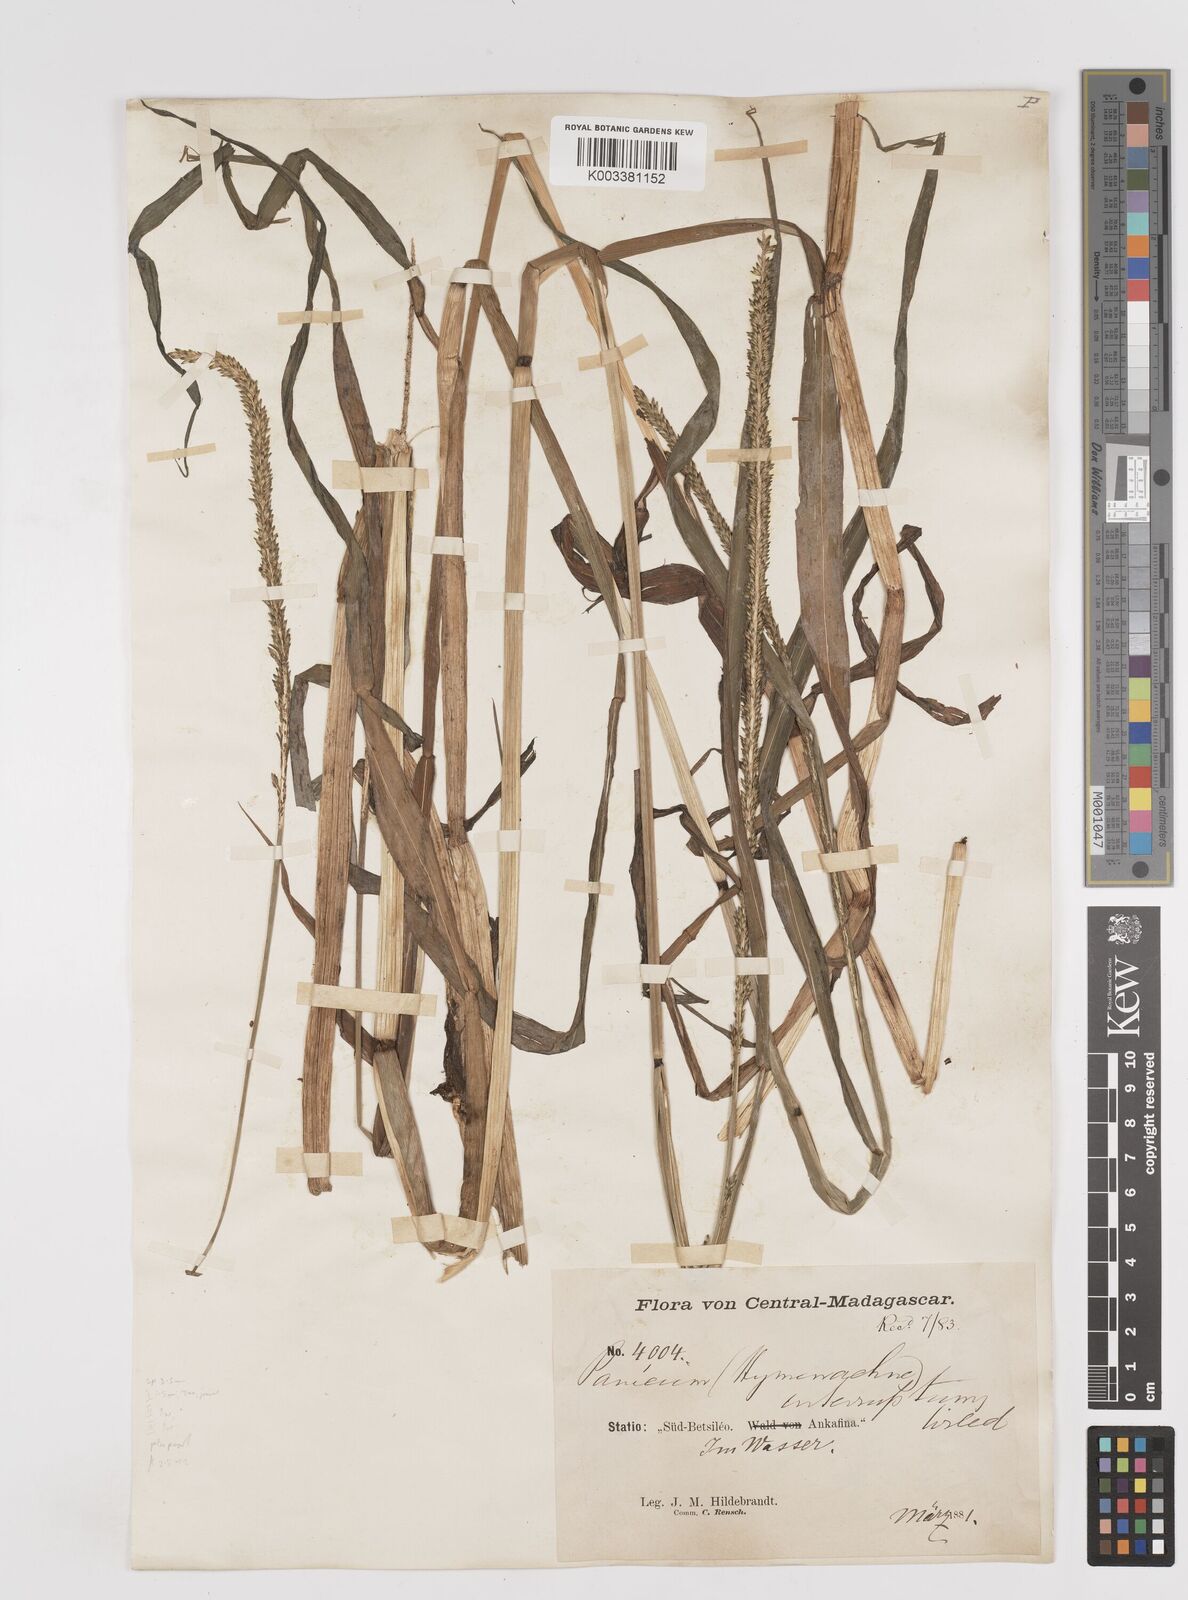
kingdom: Plantae
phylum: Tracheophyta
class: Liliopsida
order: Poales
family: Poaceae
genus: Sacciolepis
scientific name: Sacciolepis africana
